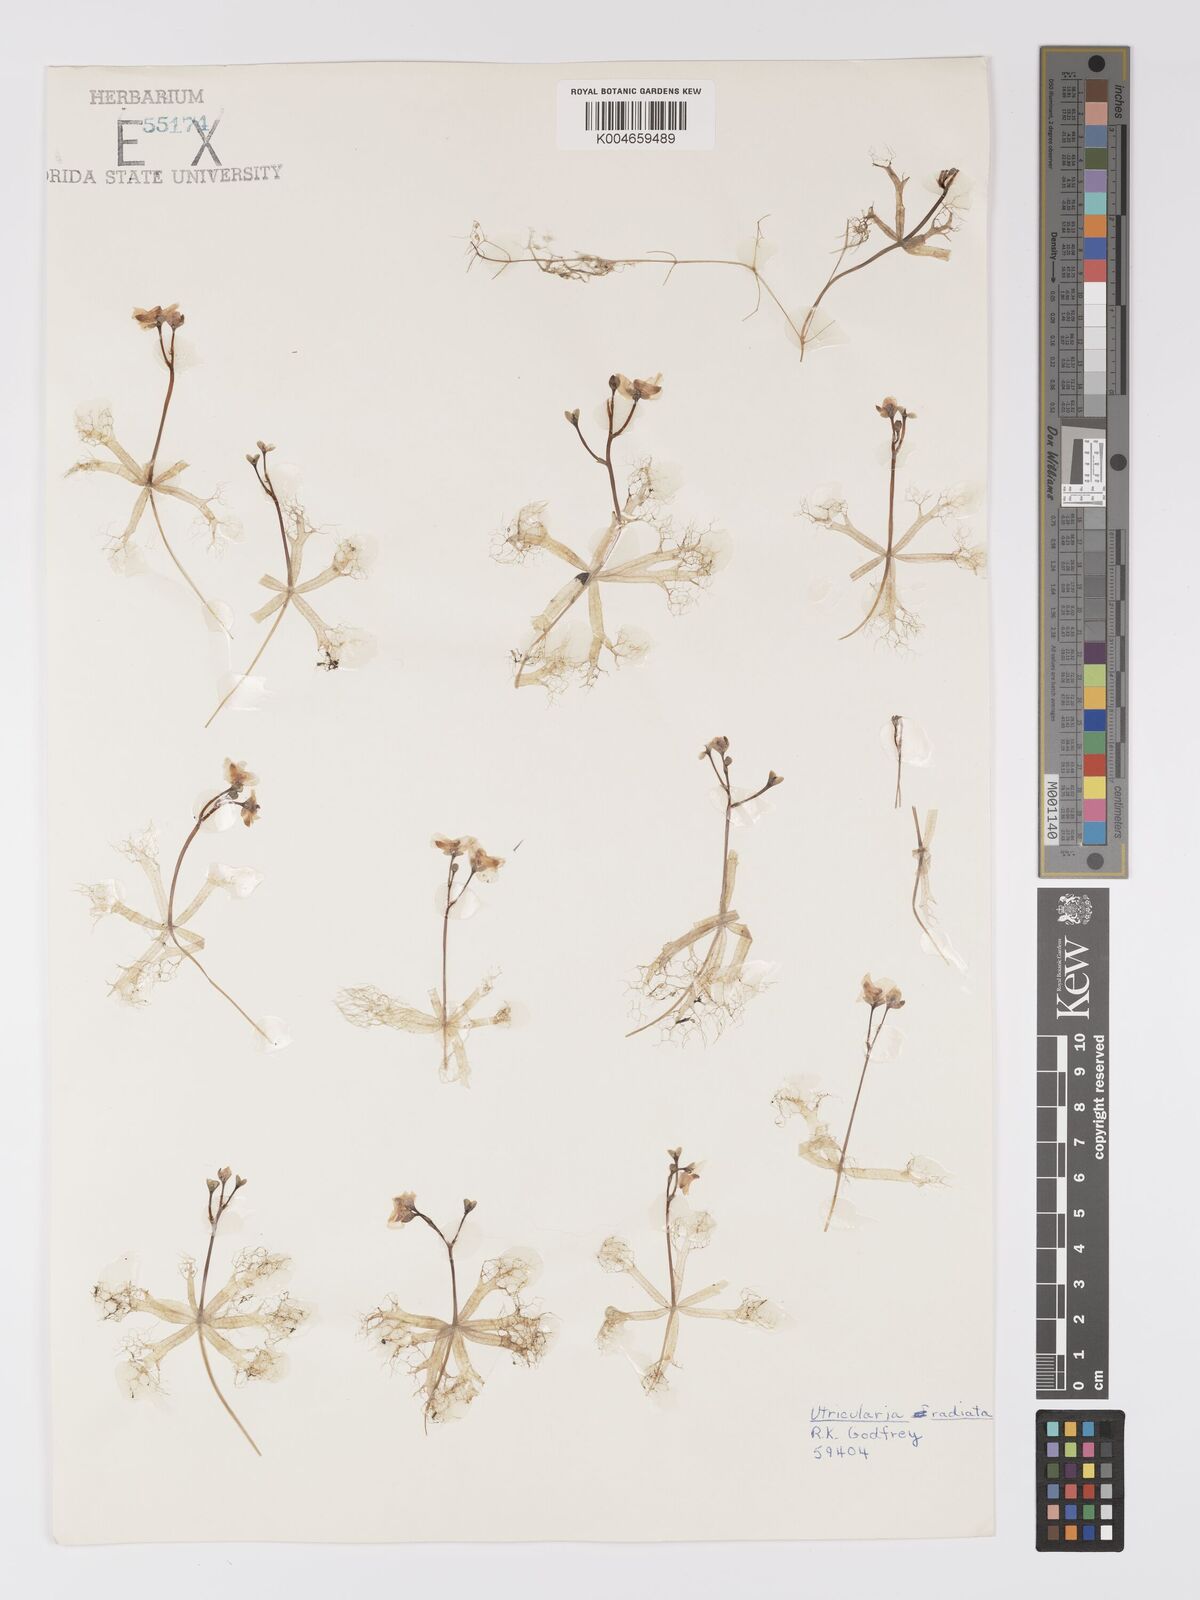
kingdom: Plantae
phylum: Tracheophyta
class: Magnoliopsida
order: Lamiales
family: Lentibulariaceae
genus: Utricularia
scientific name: Utricularia radiata
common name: Floating bladderwort
